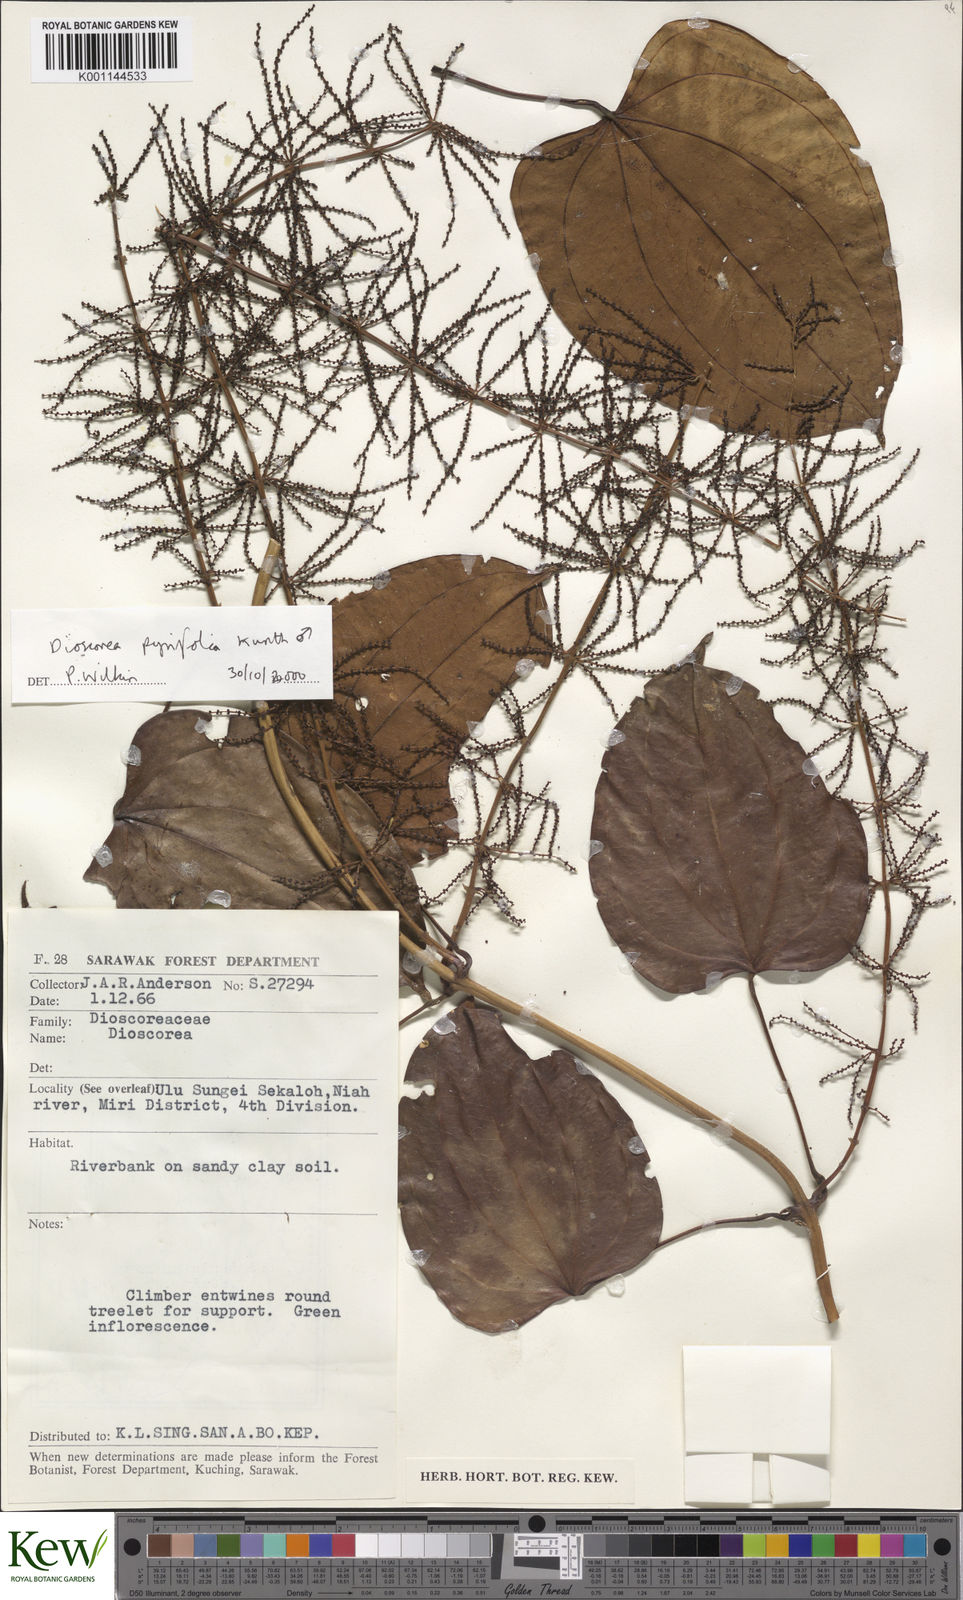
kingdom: Plantae
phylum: Tracheophyta
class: Liliopsida
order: Dioscoreales
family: Dioscoreaceae
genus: Dioscorea
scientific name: Dioscorea pyrifolia
